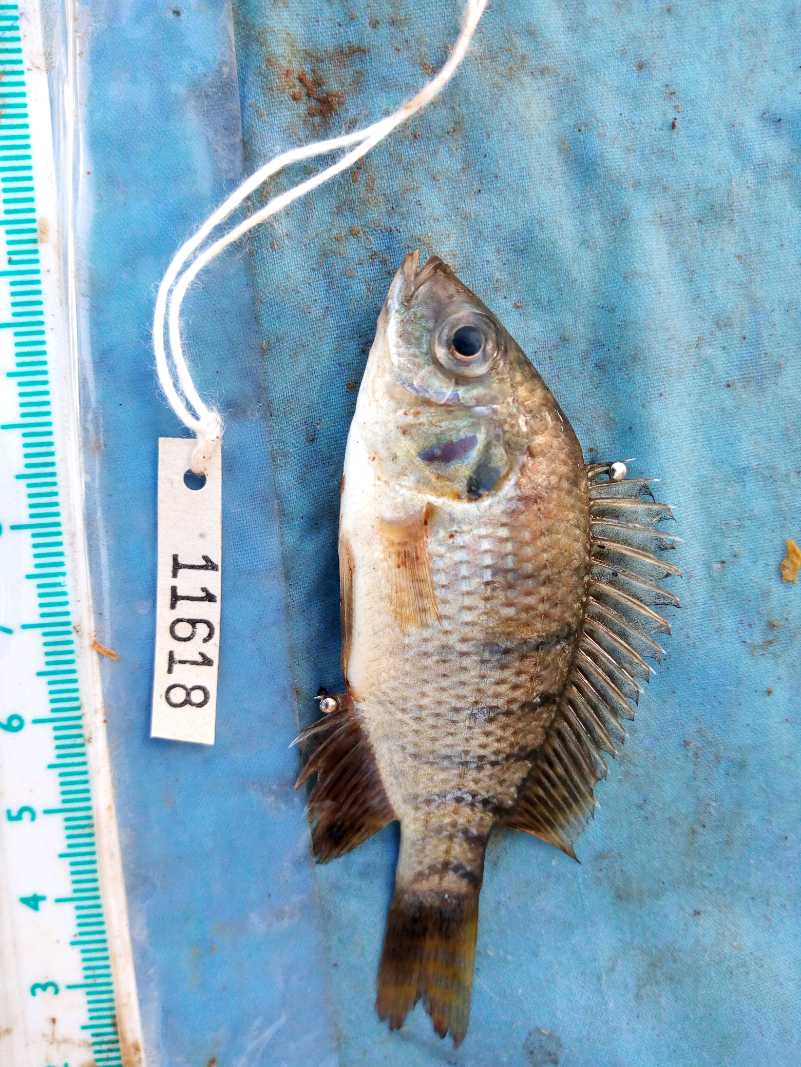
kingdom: Animalia
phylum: Chordata
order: Perciformes
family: Cichlidae
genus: Oreochromis
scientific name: Oreochromis spilurus
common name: Sabaki tilapia
